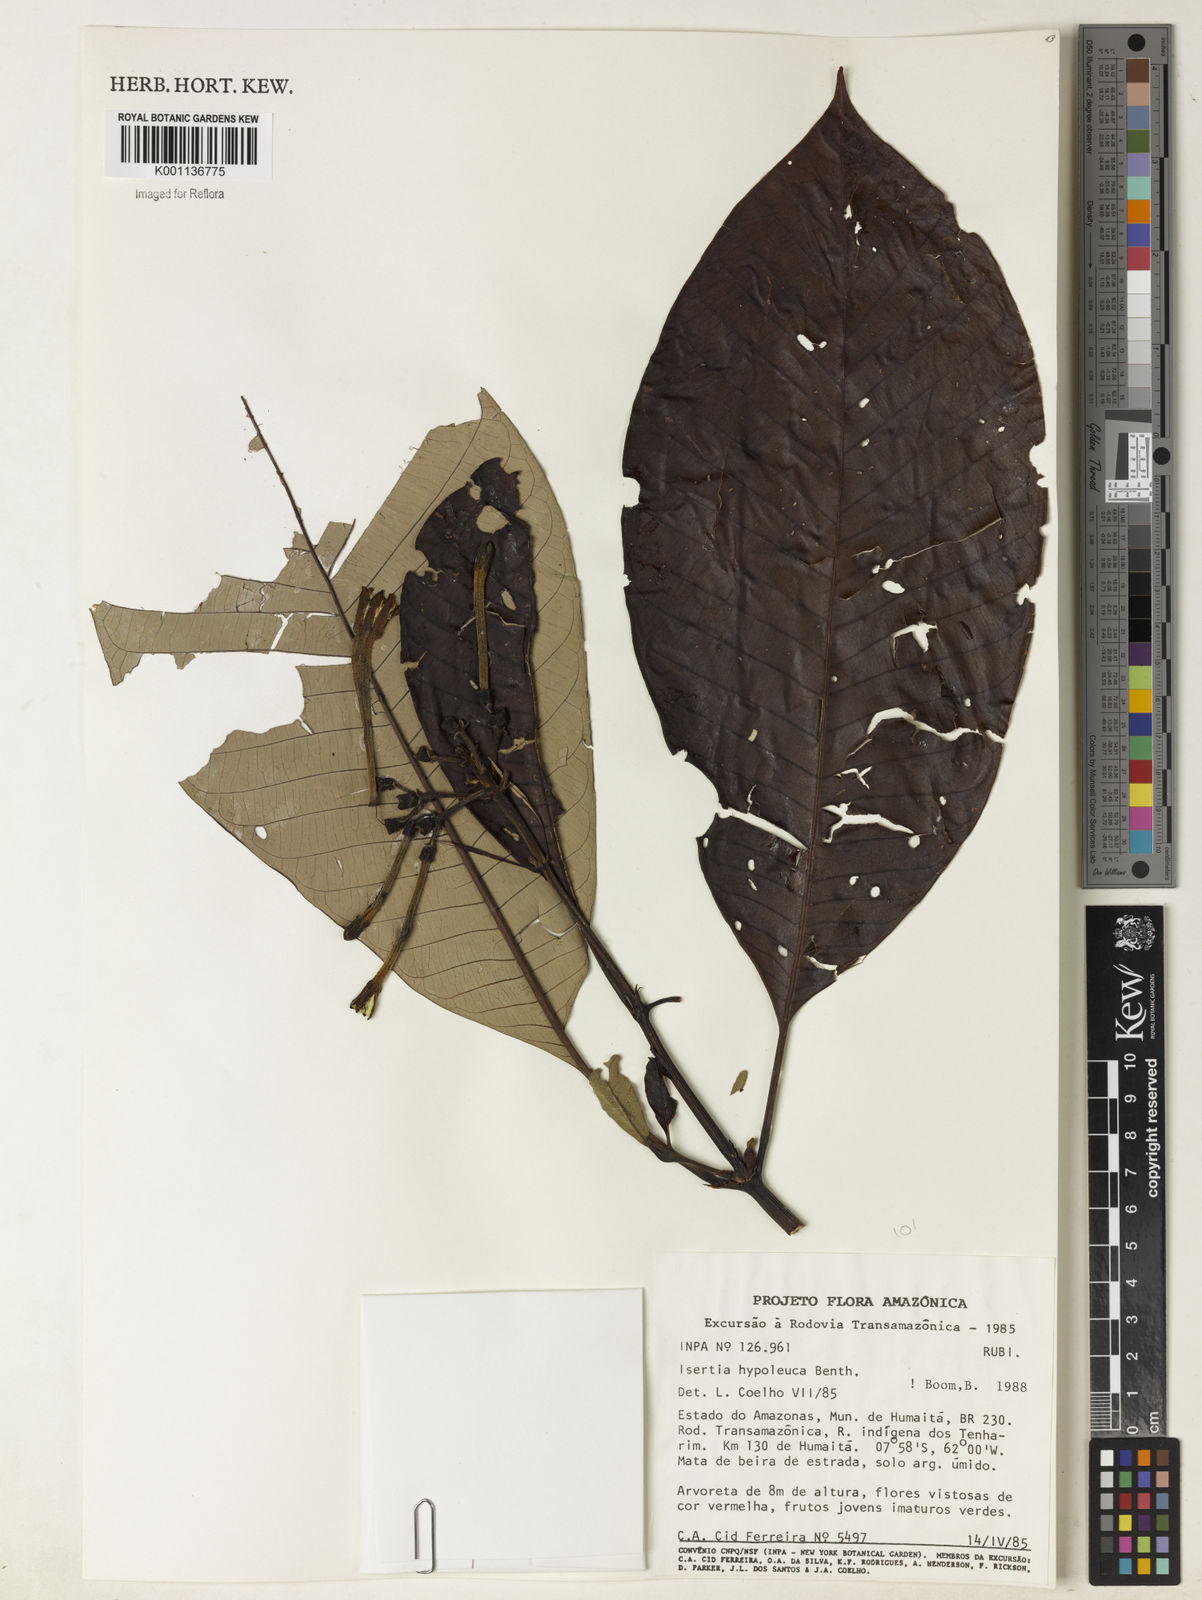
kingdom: Plantae
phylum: Tracheophyta
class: Magnoliopsida
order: Gentianales
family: Rubiaceae
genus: Isertia
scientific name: Isertia hypoleuca
